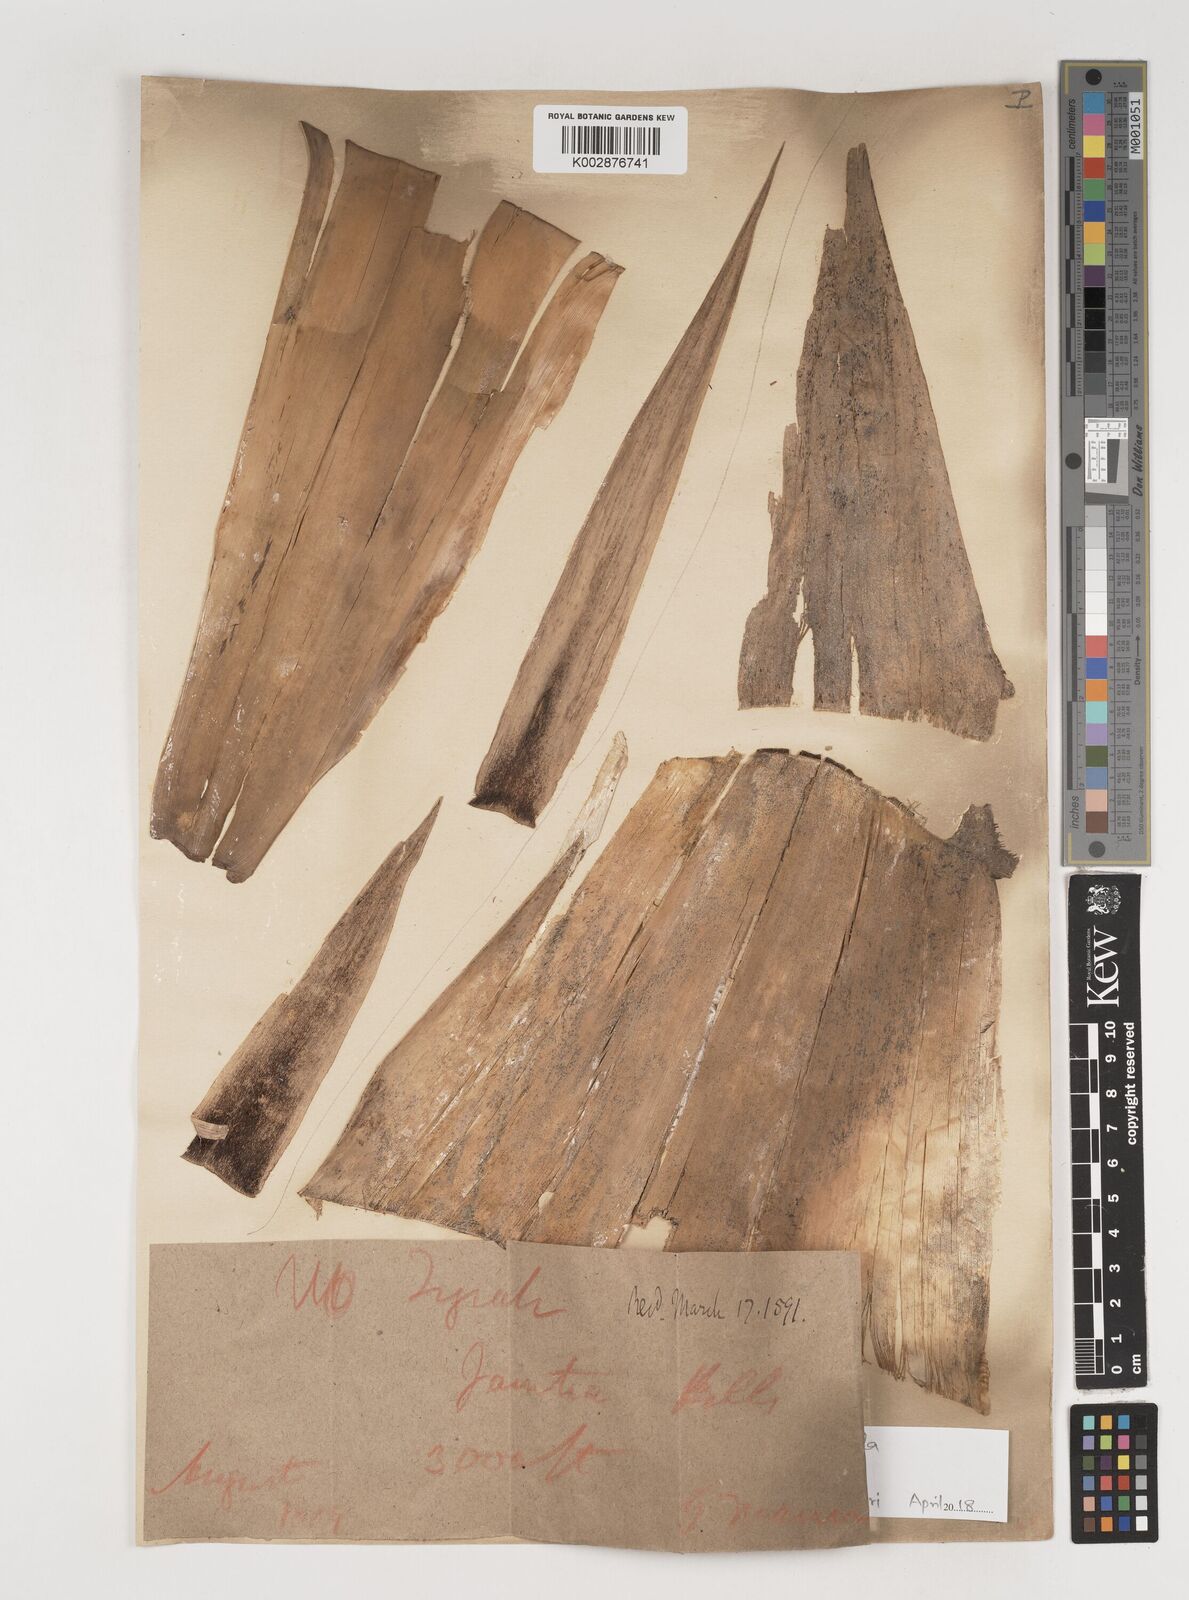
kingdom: Plantae
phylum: Tracheophyta
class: Liliopsida
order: Poales
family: Poaceae
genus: Bambusa
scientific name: Bambusa pallida
